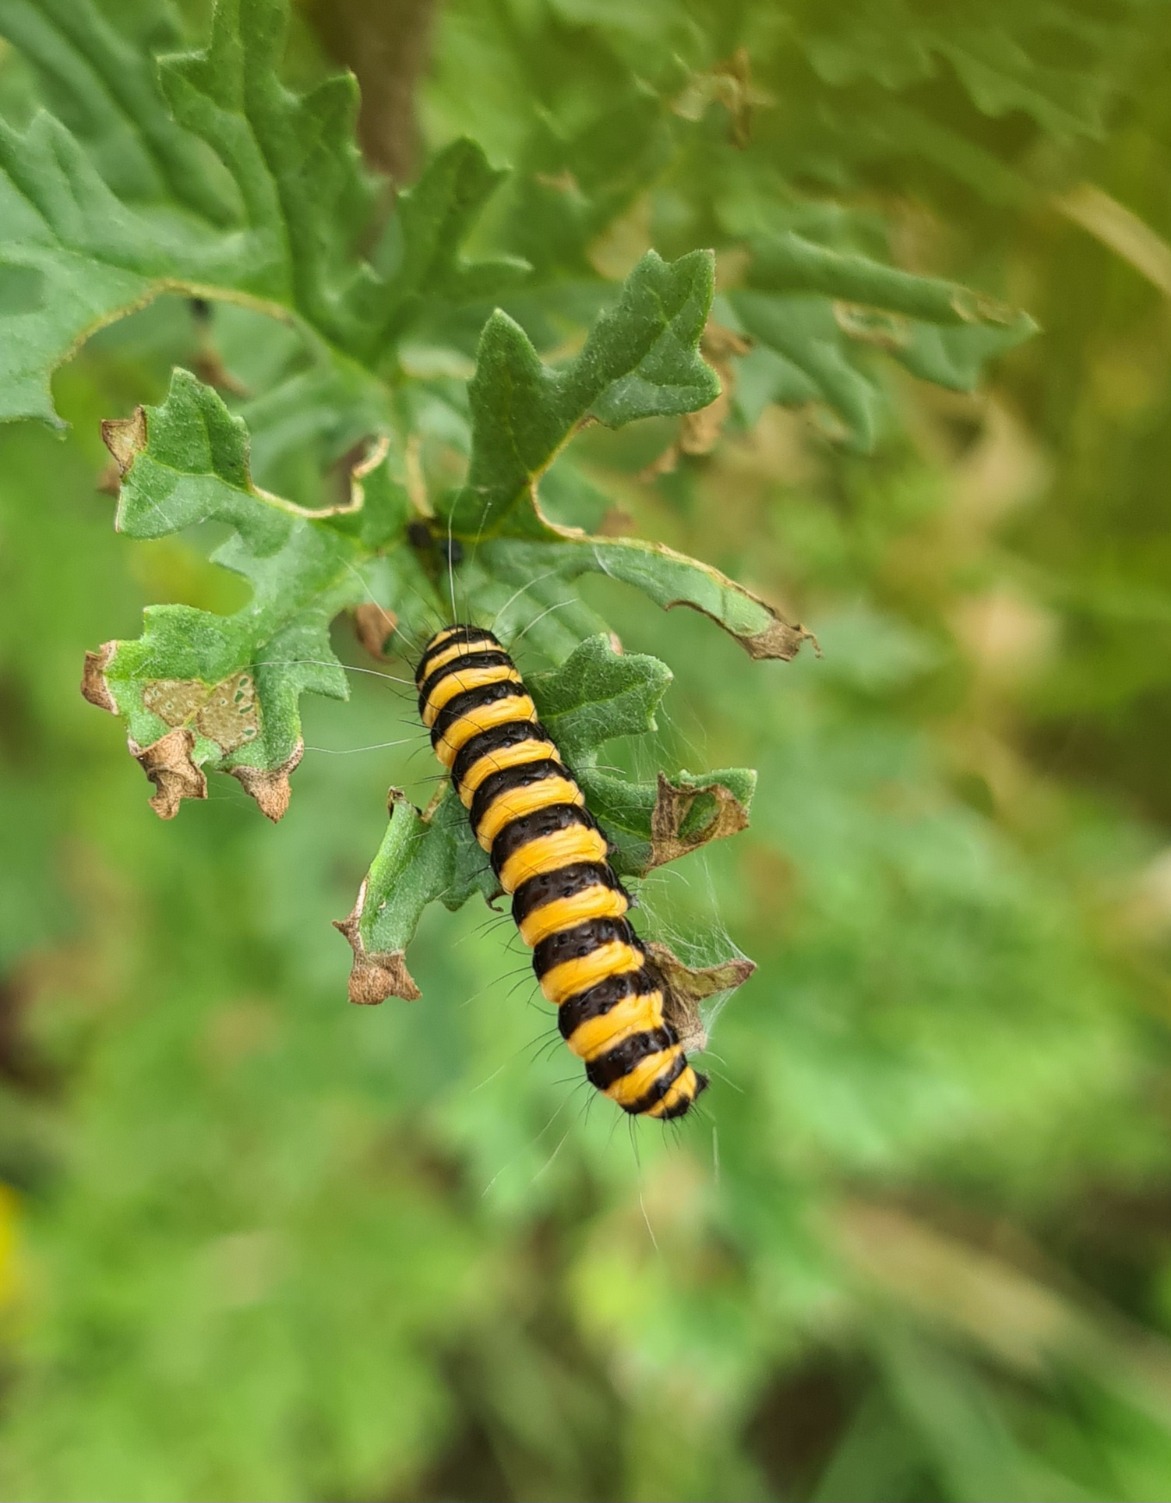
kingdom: Animalia
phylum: Arthropoda
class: Insecta
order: Lepidoptera
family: Erebidae
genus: Tyria
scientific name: Tyria jacobaeae
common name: Blodplet
